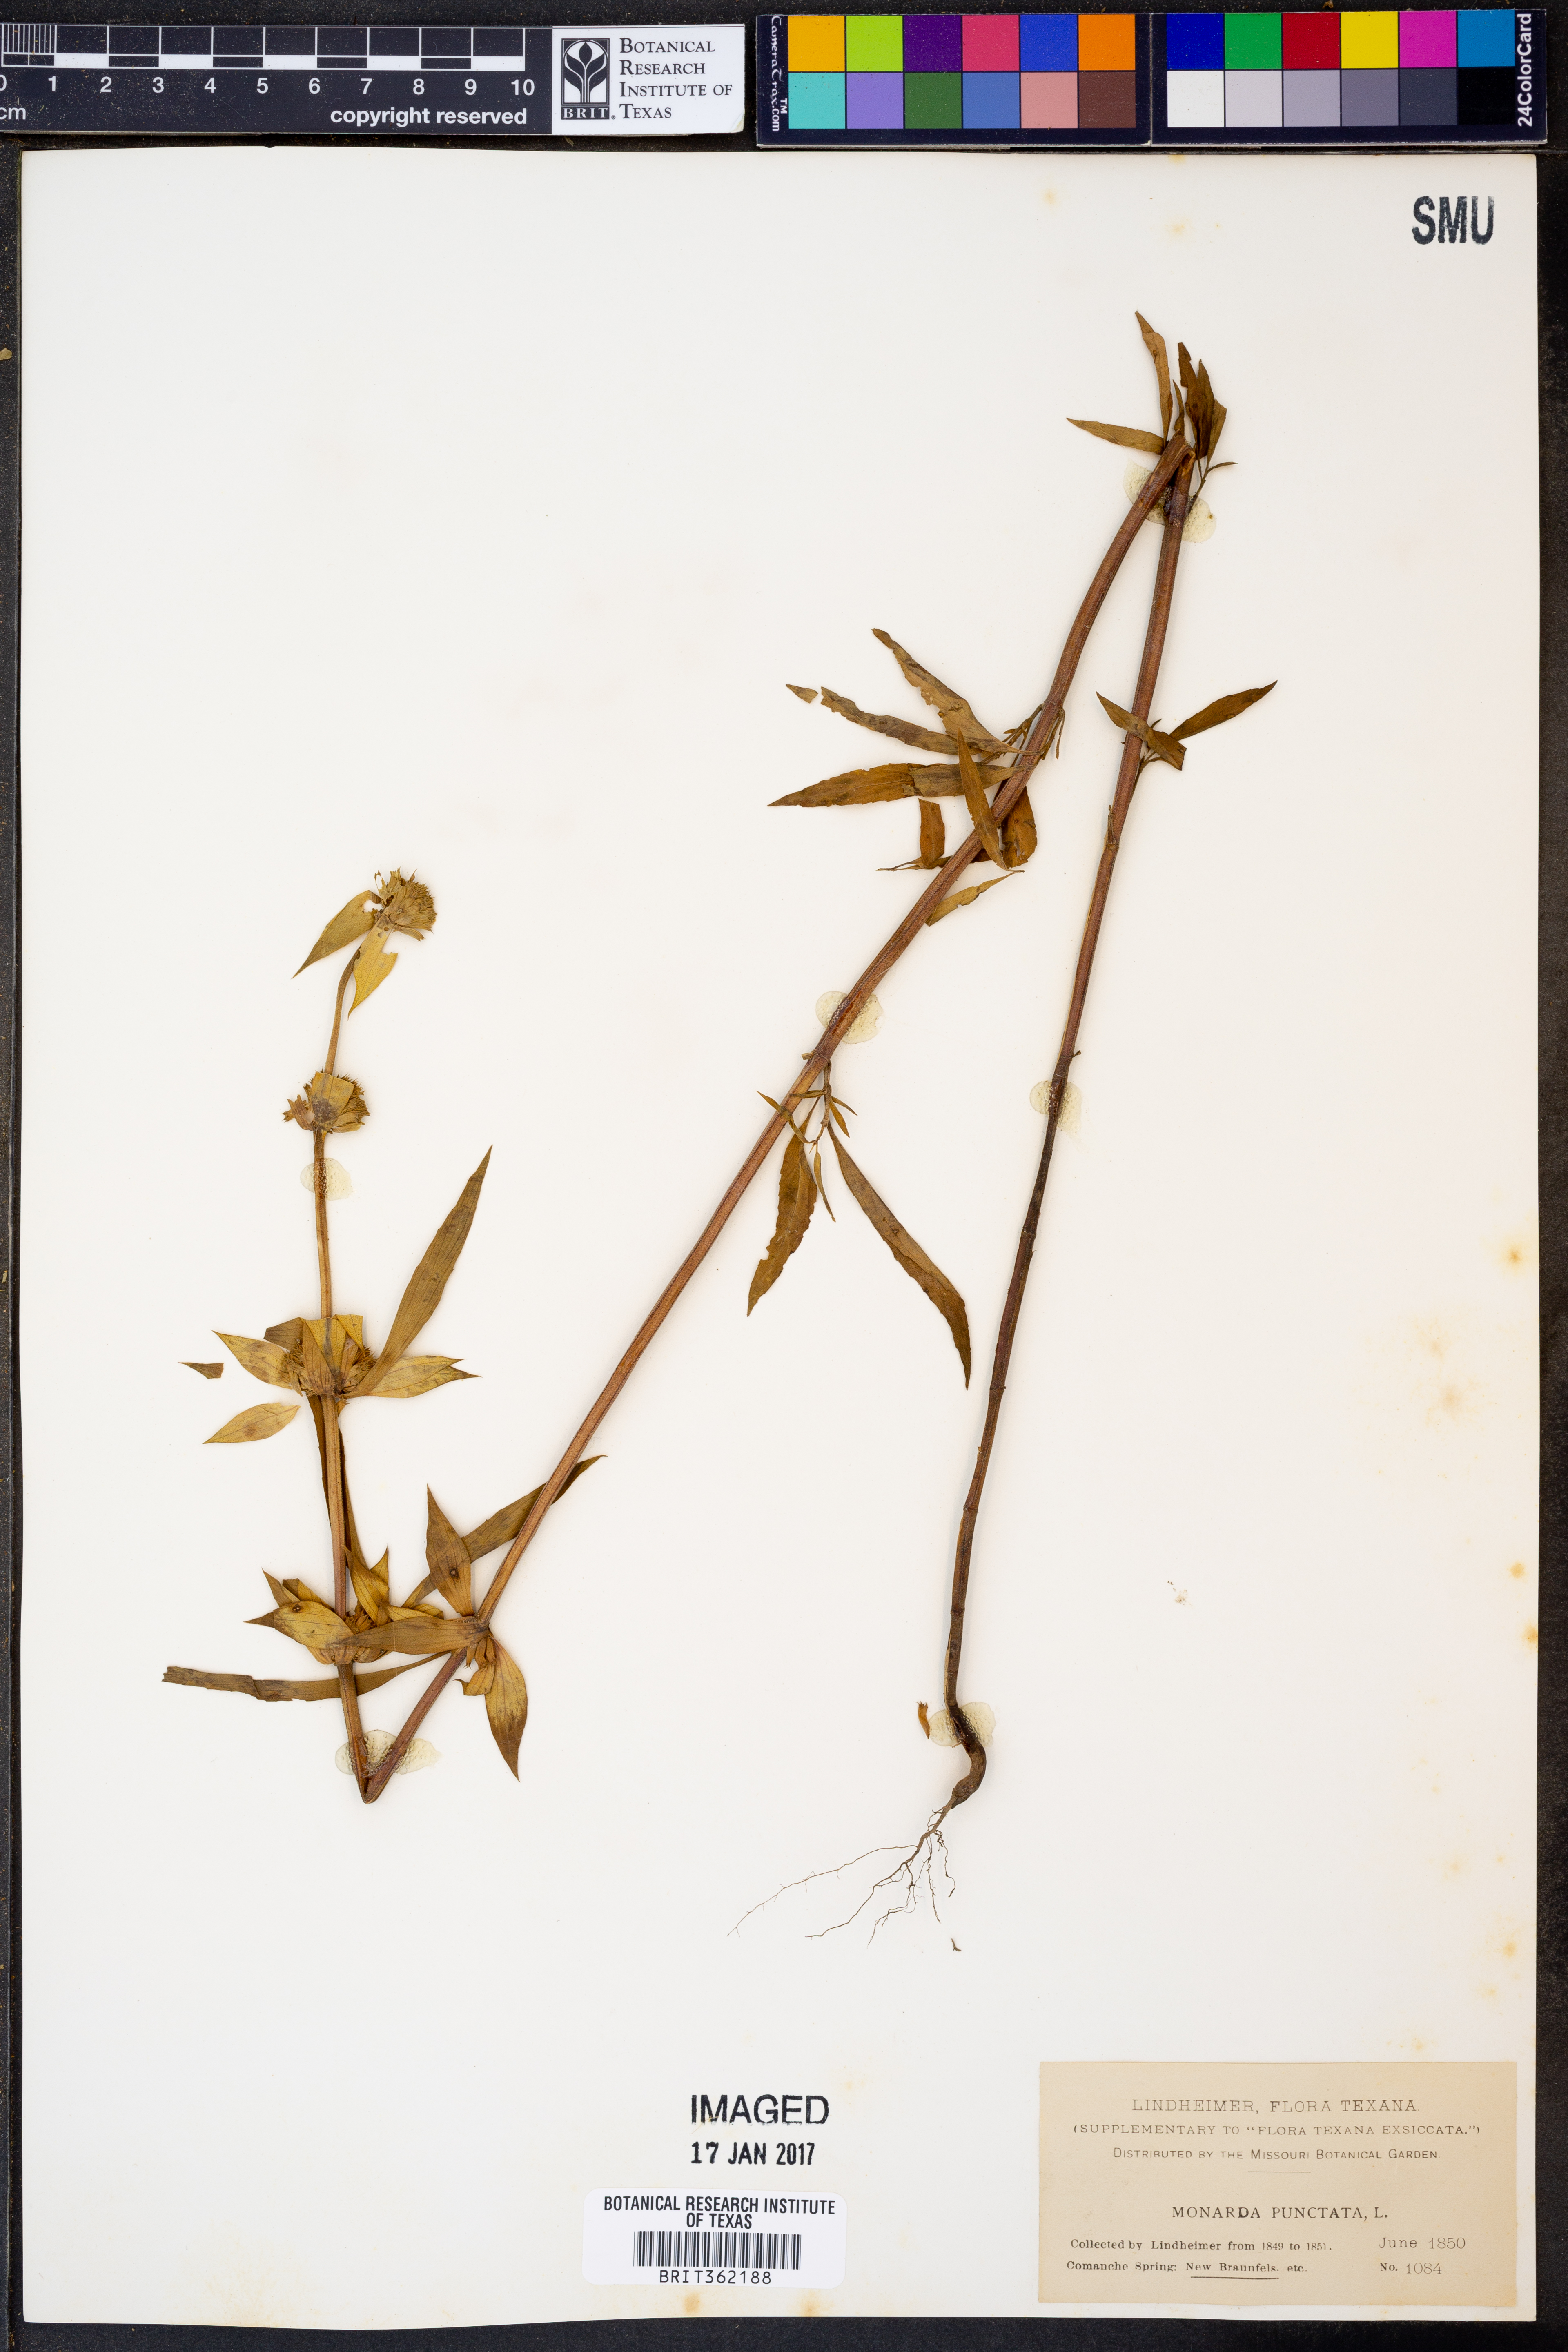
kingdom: Plantae
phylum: Tracheophyta
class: Magnoliopsida
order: Lamiales
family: Lamiaceae
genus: Monarda
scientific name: Monarda punctata
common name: Dotted monarda
